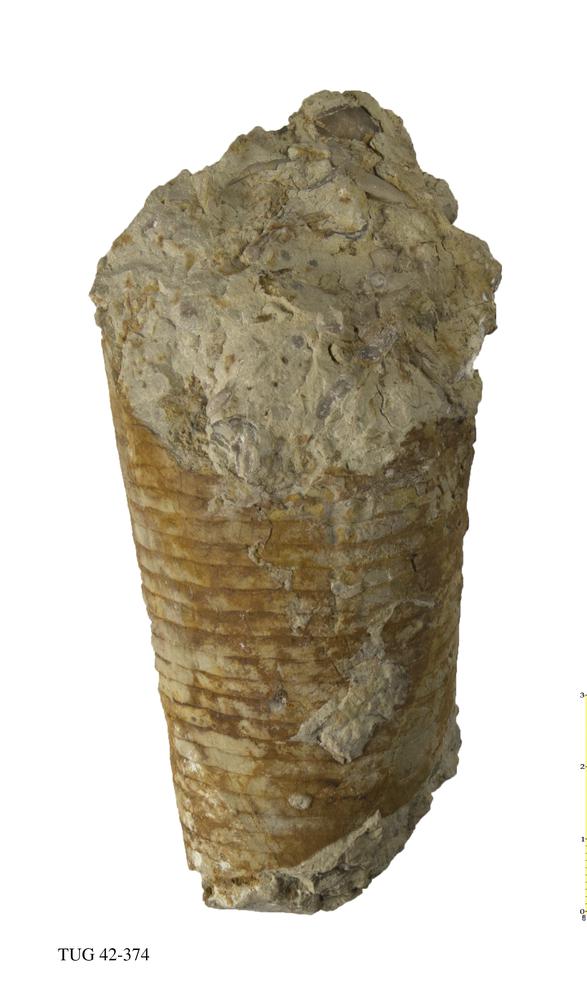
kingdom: Animalia
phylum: Mollusca
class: Cephalopoda
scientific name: Cephalopoda
